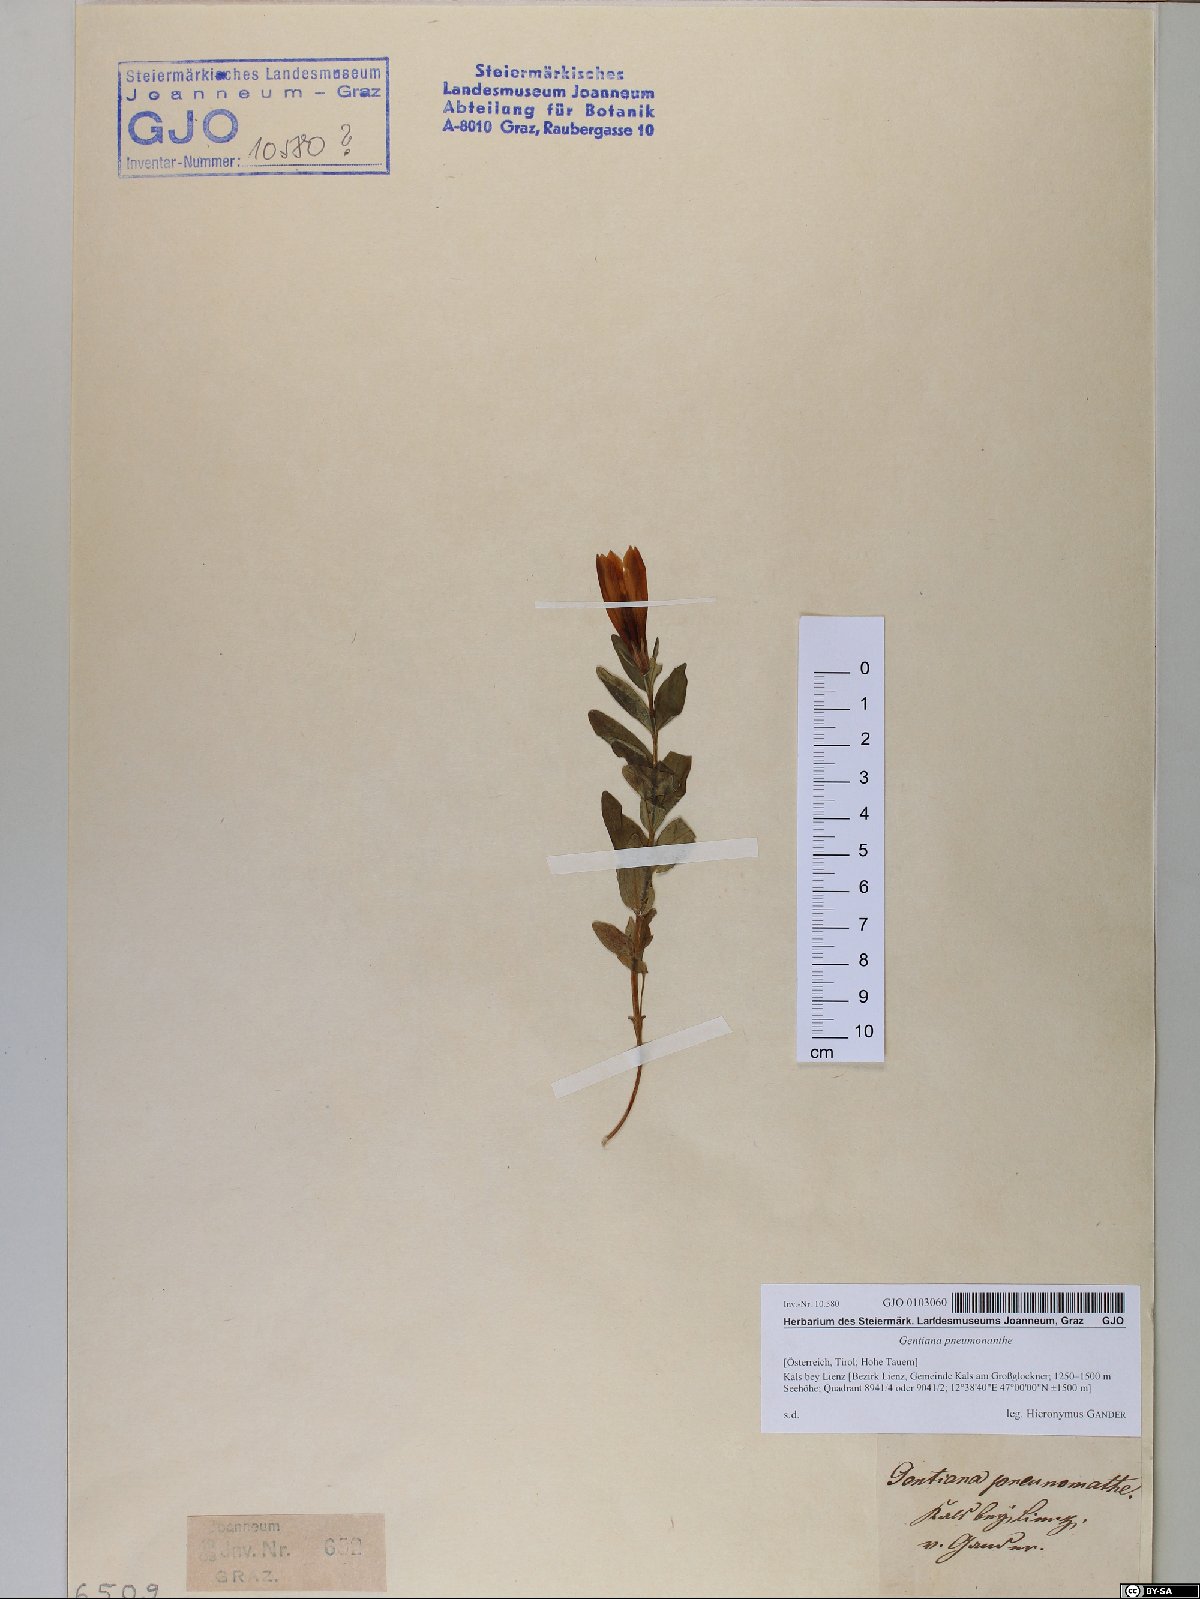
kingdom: Plantae
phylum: Tracheophyta
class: Magnoliopsida
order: Gentianales
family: Gentianaceae
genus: Gentiana
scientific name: Gentiana pneumonanthe
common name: Marsh gentian
